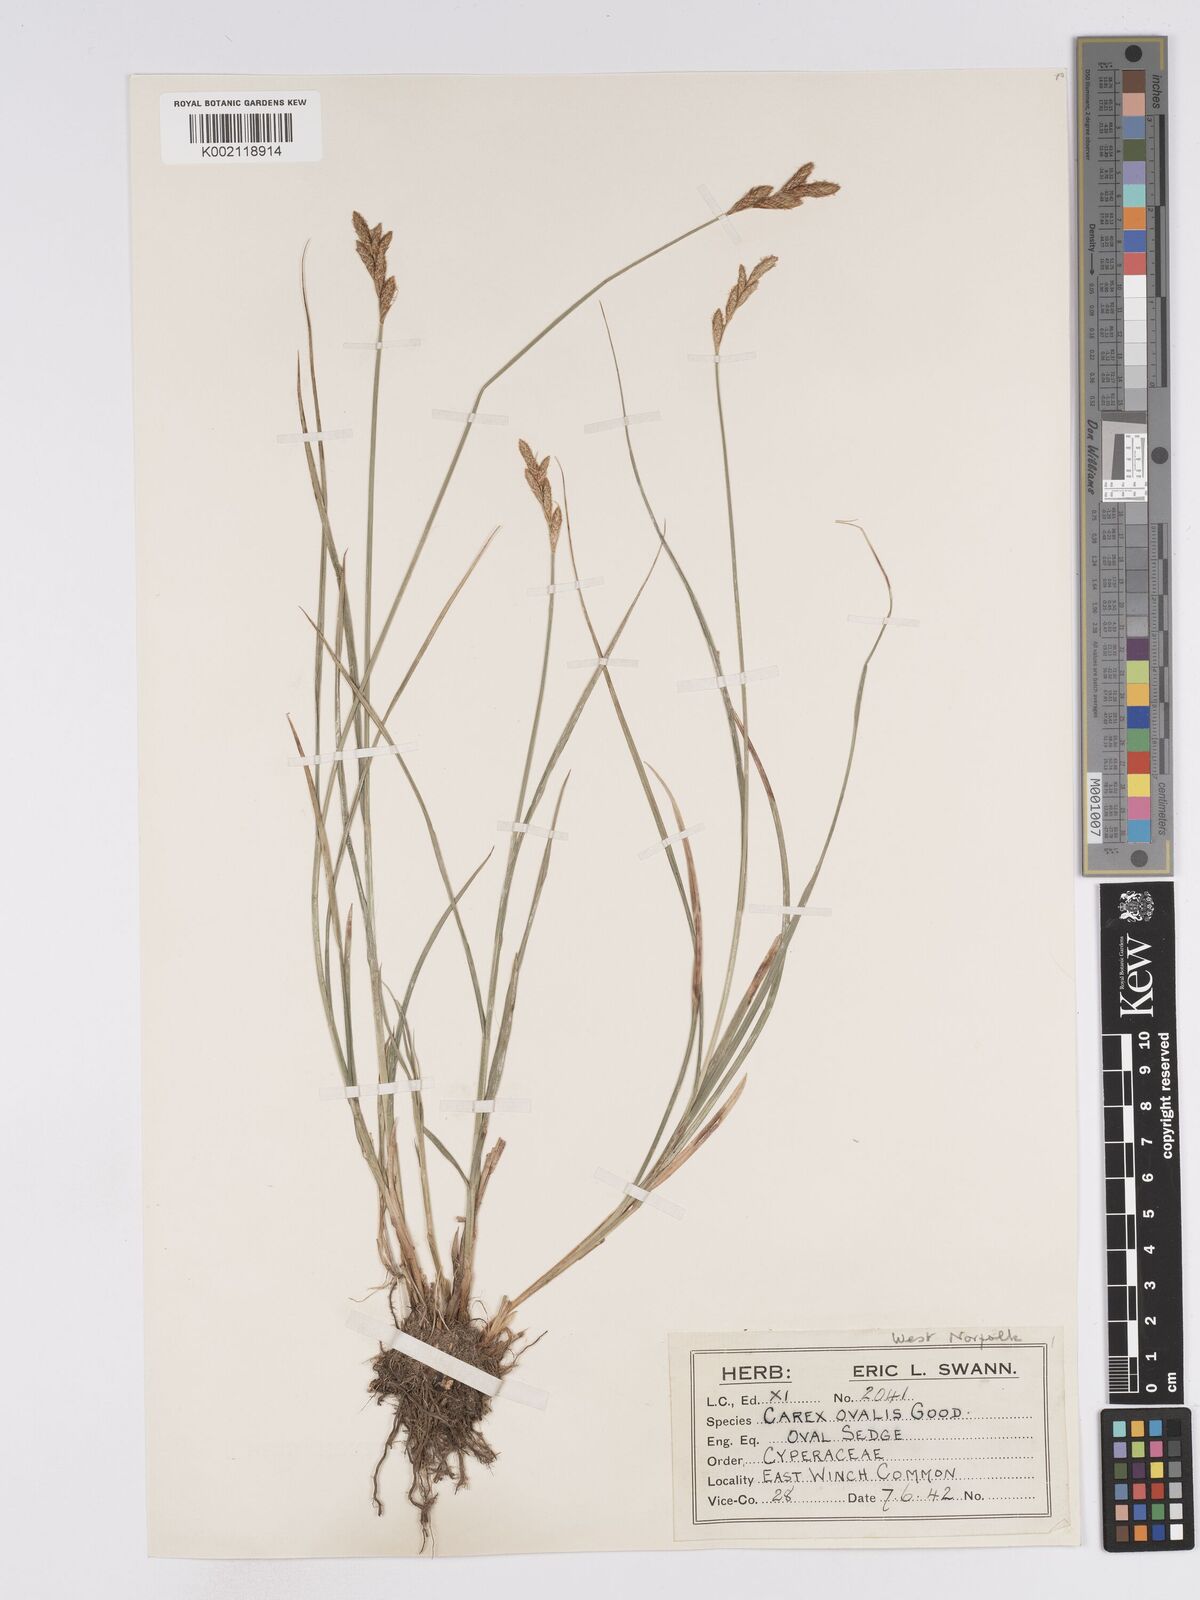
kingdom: Plantae
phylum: Tracheophyta
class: Liliopsida
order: Poales
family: Cyperaceae
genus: Carex
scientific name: Carex leporina
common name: Oval sedge
